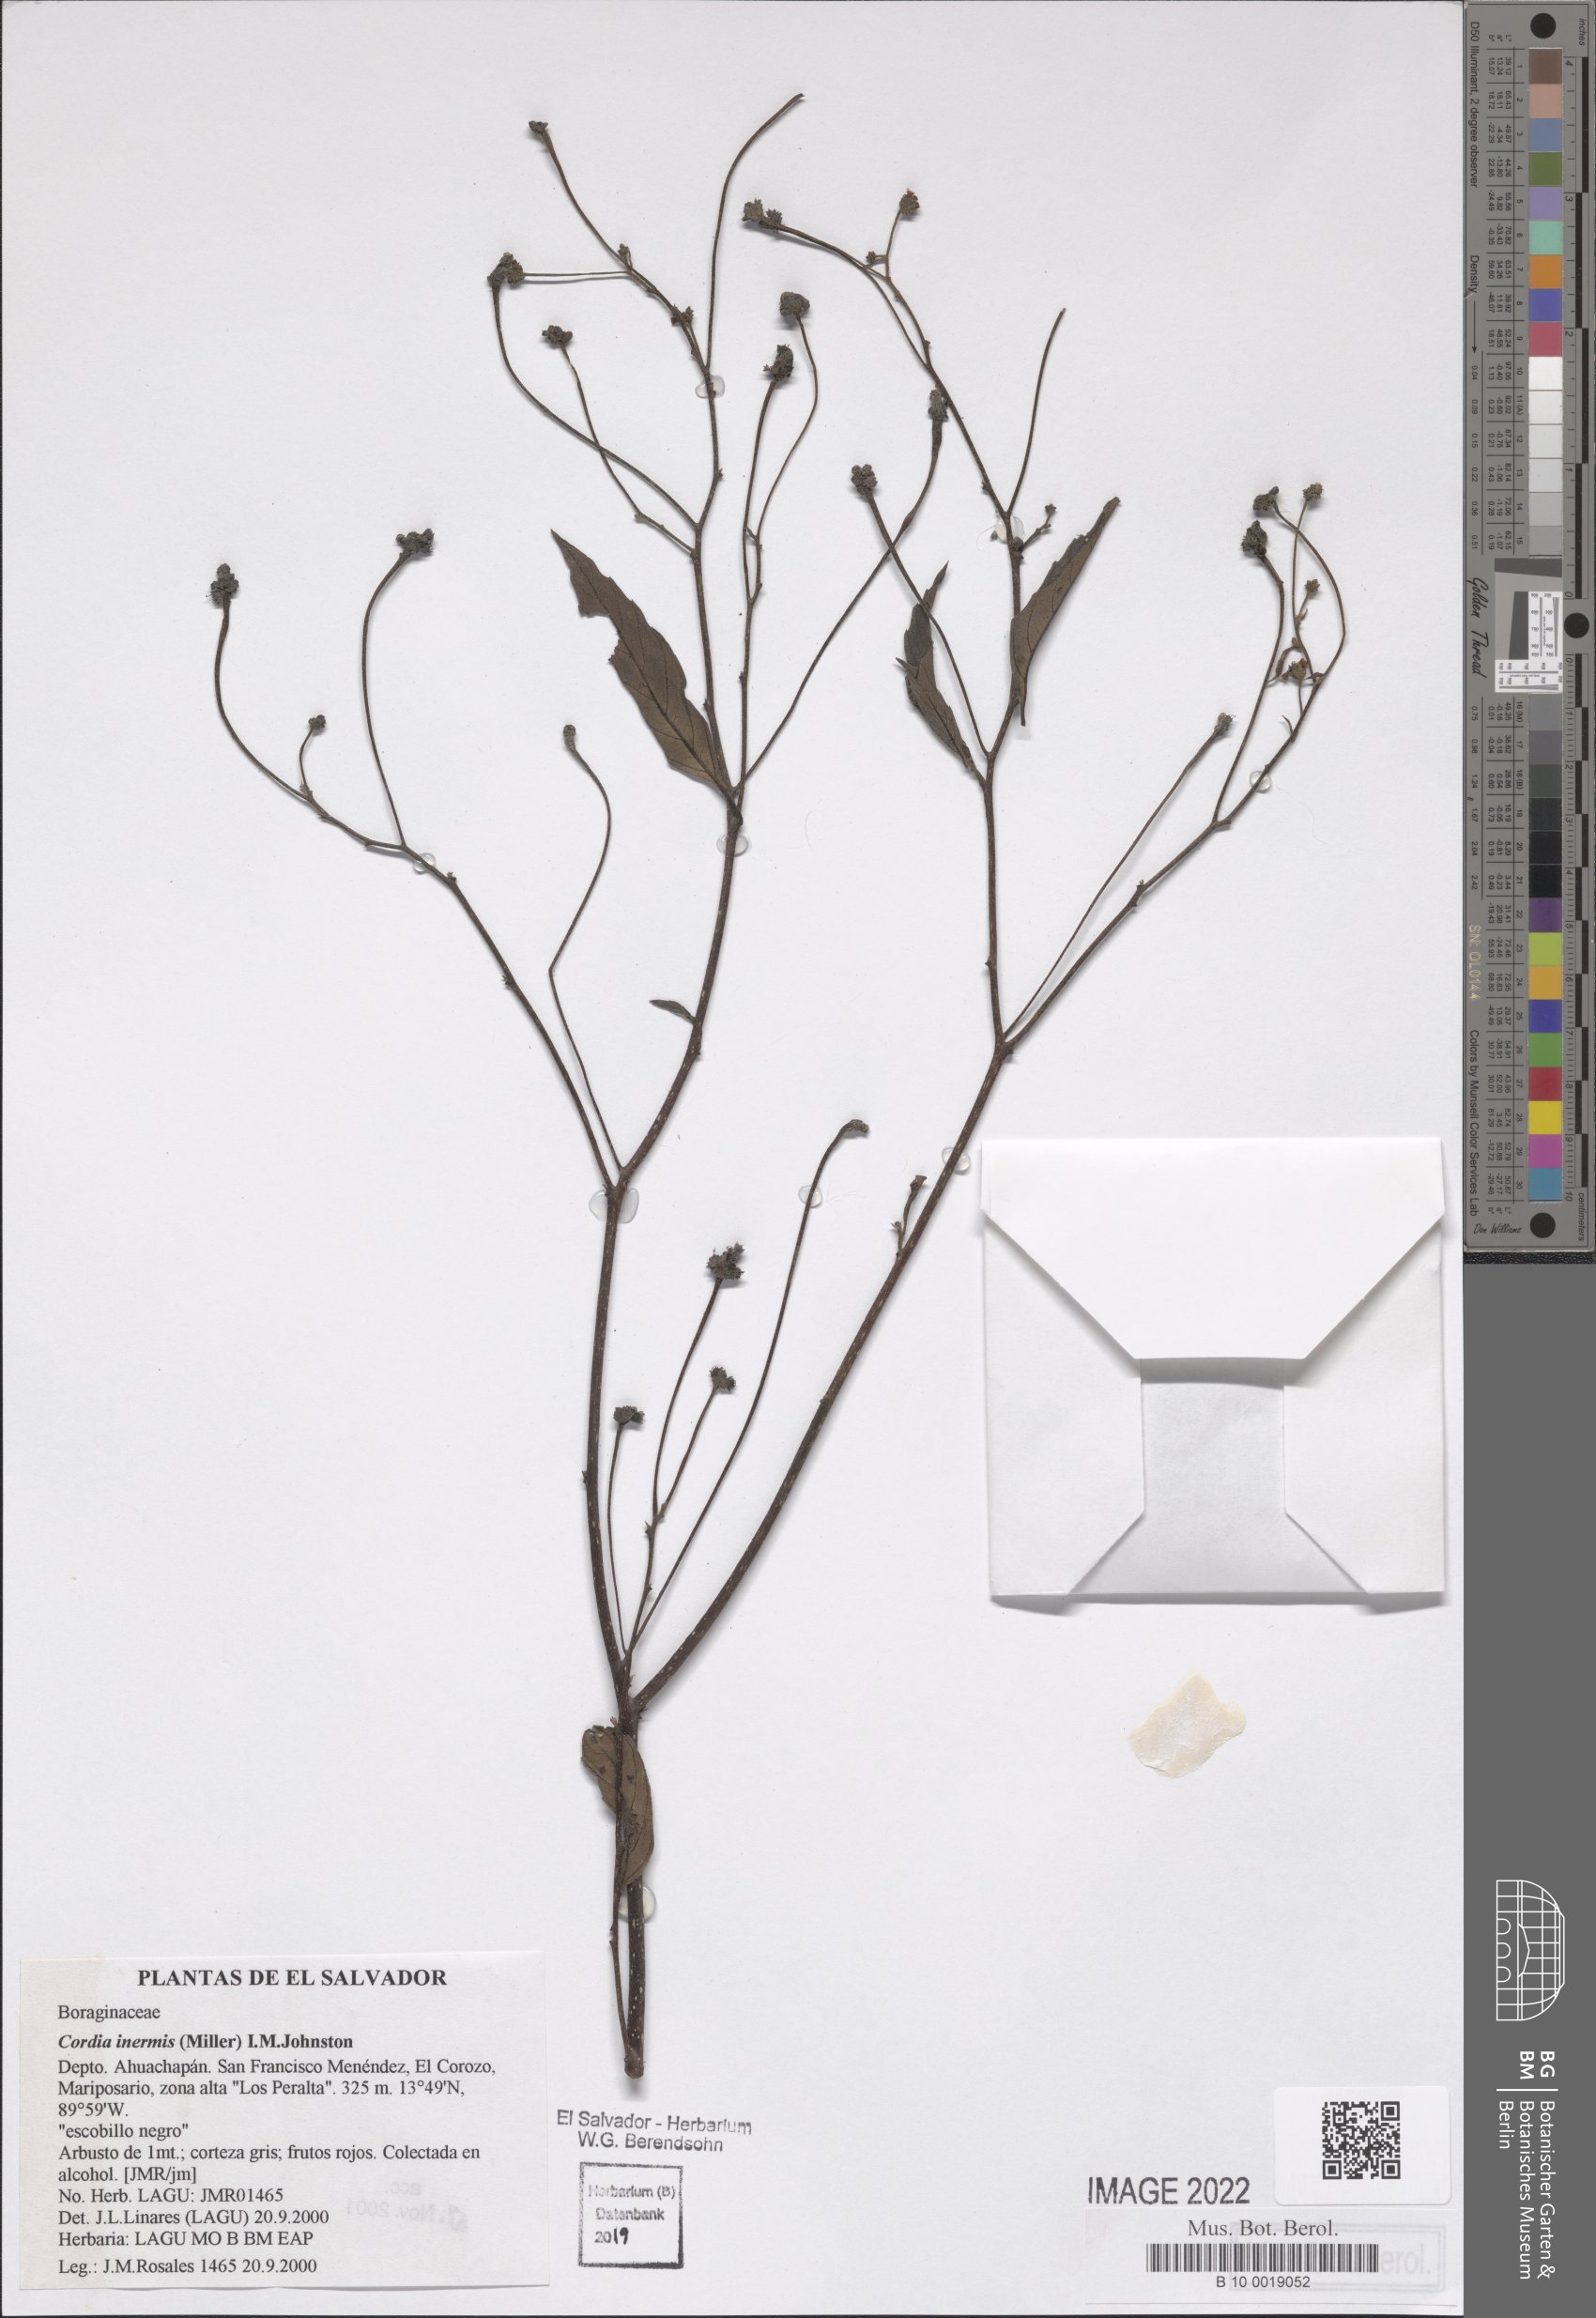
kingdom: Plantae
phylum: Tracheophyta
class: Magnoliopsida
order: Boraginales
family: Cordiaceae
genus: Varronia
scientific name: Varronia inermis
